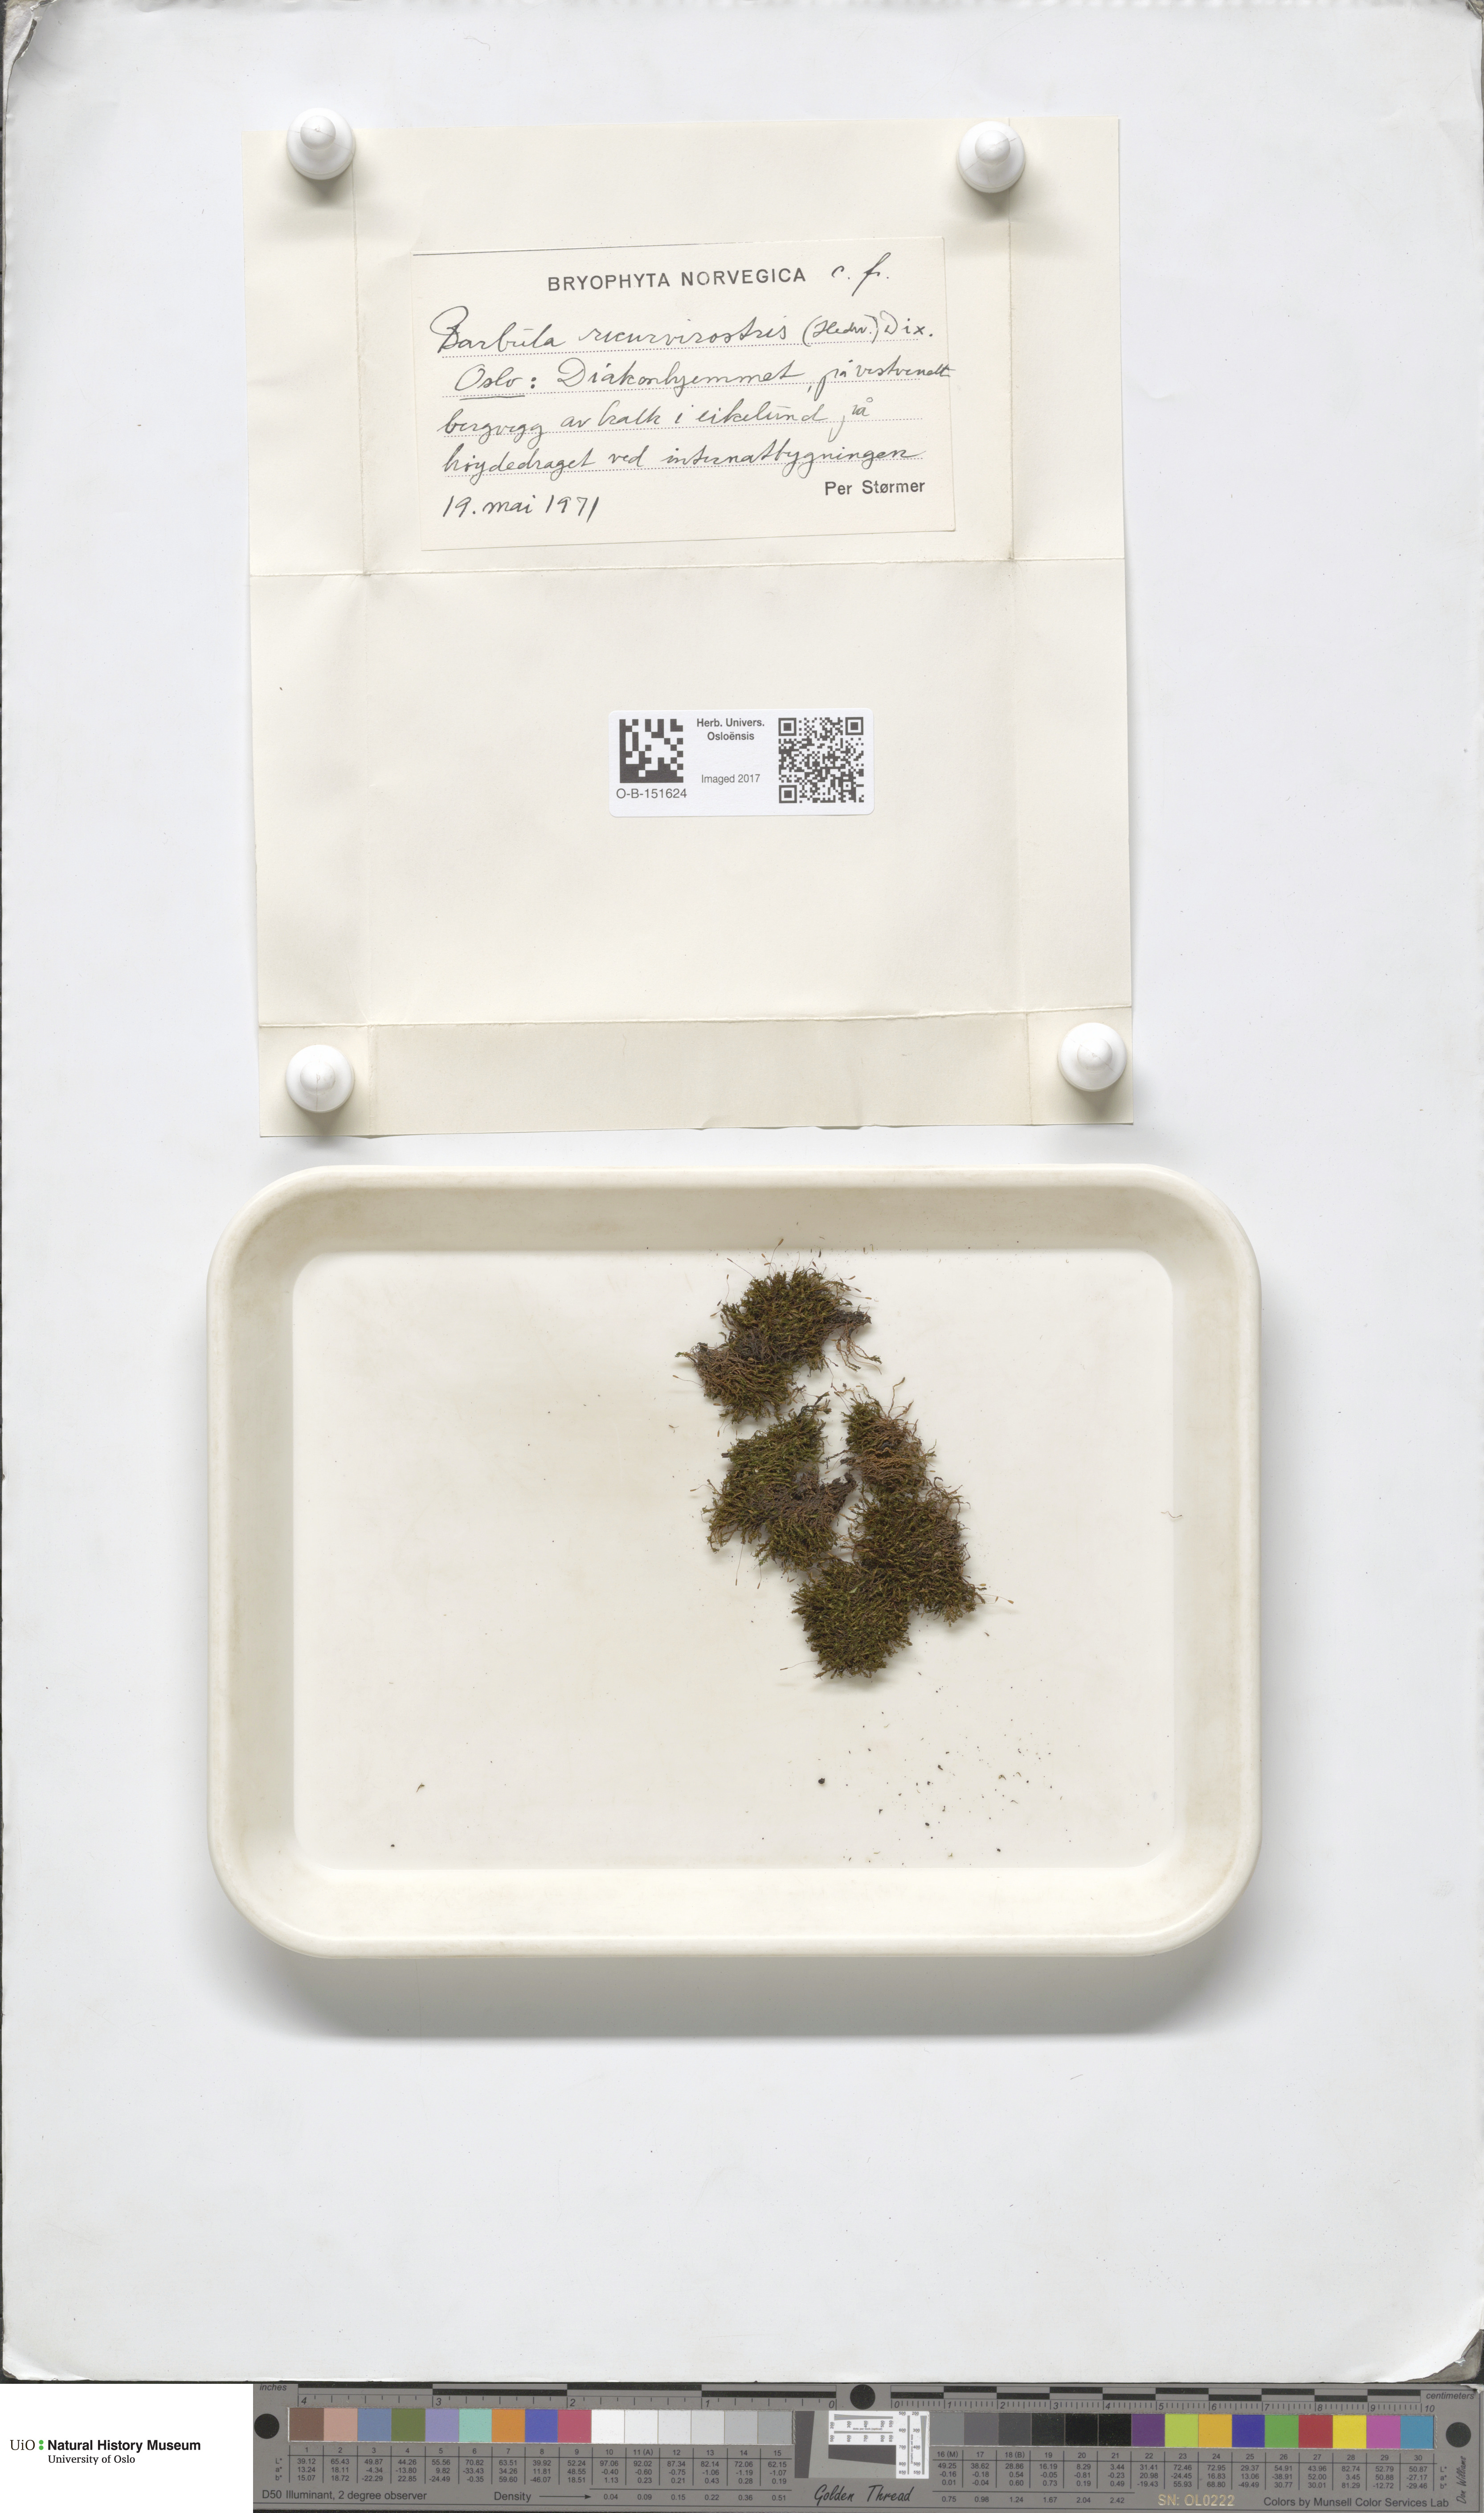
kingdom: Plantae
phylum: Bryophyta
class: Bryopsida
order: Pottiales
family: Pottiaceae
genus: Bryoerythrophyllum
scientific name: Bryoerythrophyllum recurvirostrum
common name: Red beard moss
